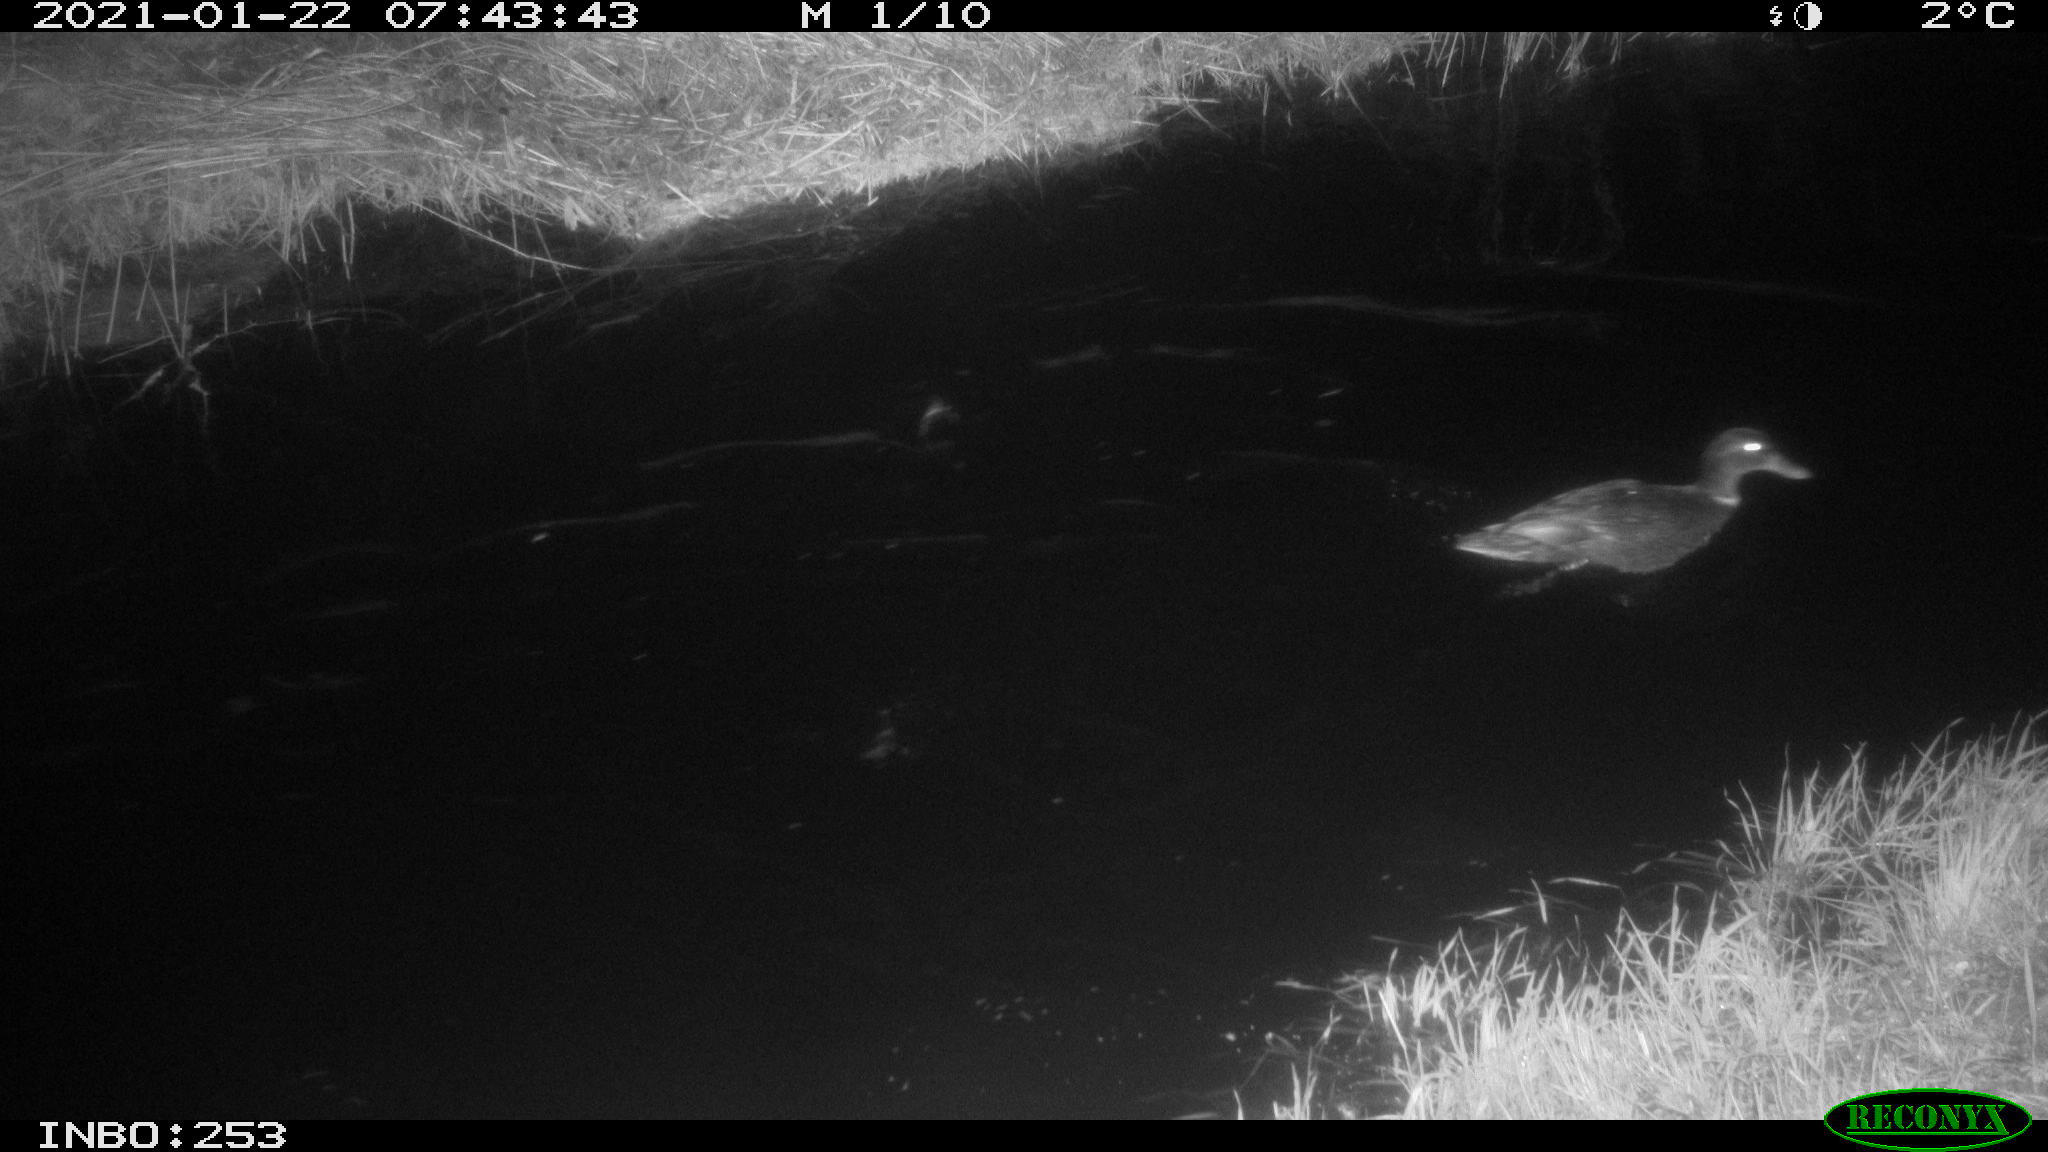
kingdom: Animalia
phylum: Chordata
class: Aves
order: Anseriformes
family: Anatidae
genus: Anas
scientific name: Anas platyrhynchos
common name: Mallard
